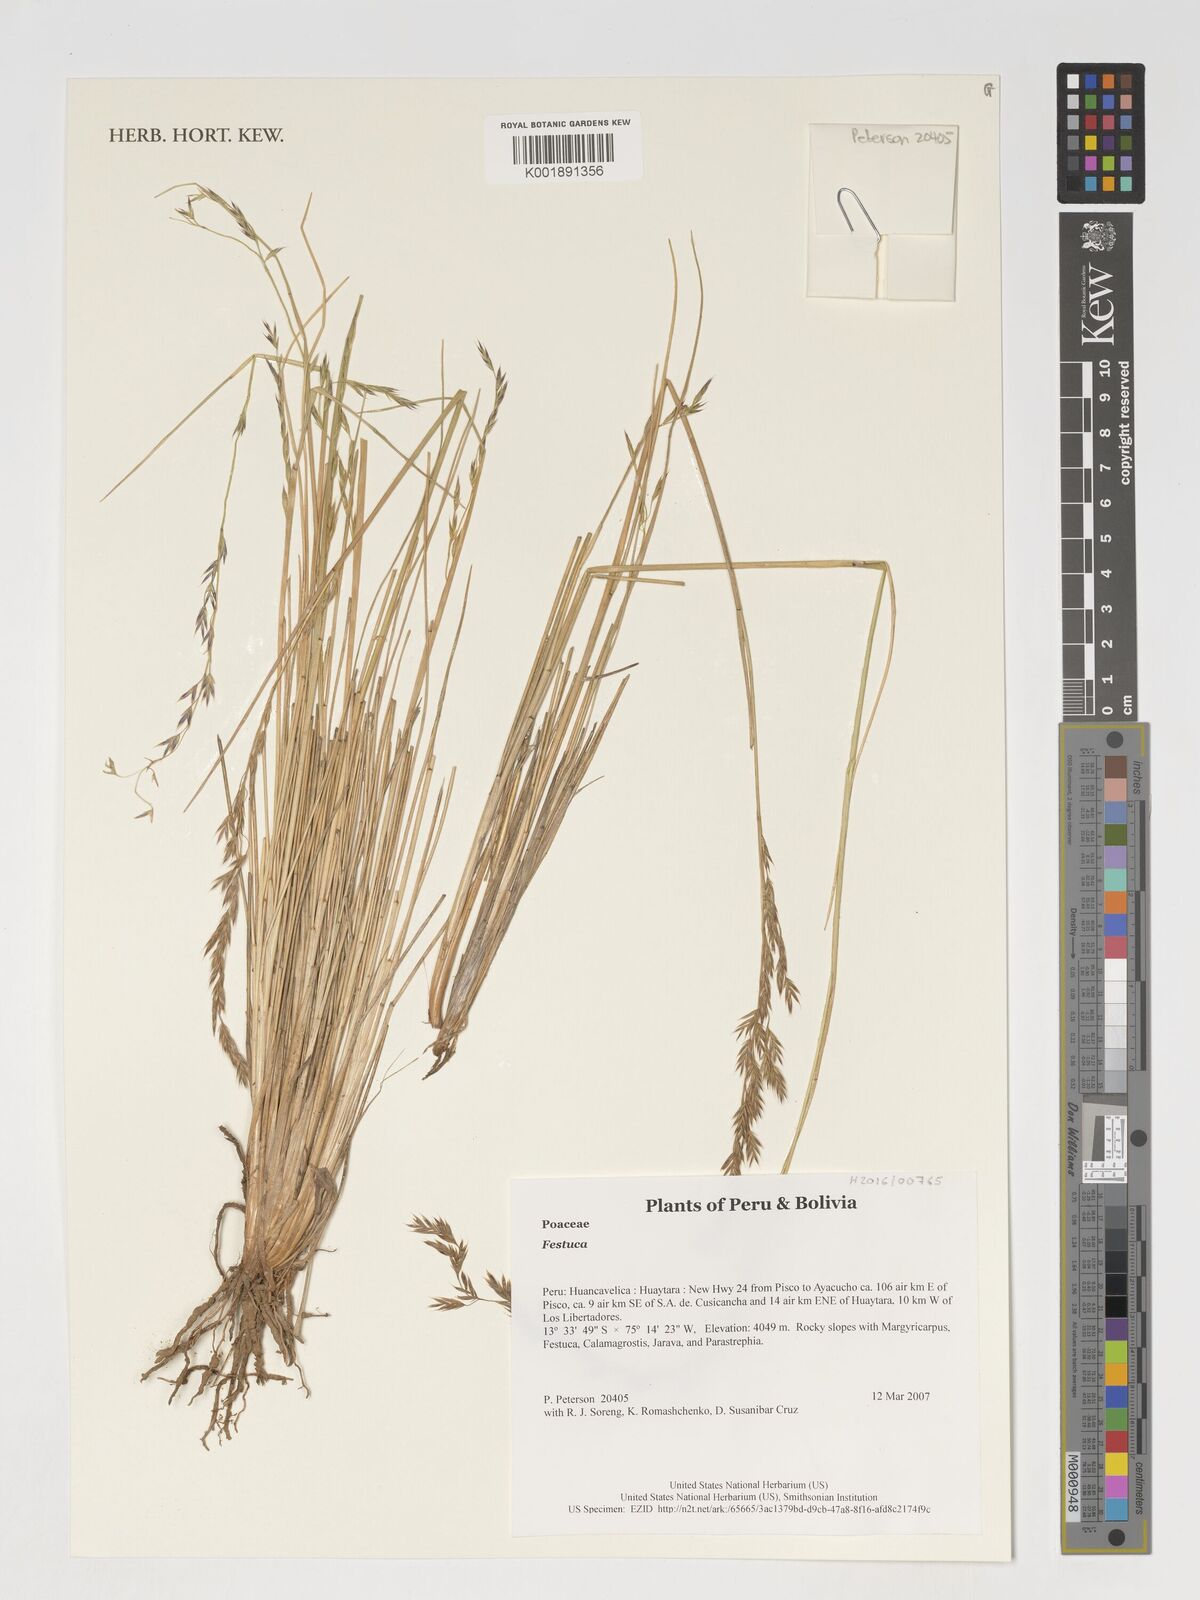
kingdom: Plantae
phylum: Tracheophyta
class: Liliopsida
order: Poales
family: Poaceae
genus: Festuca
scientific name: Festuca
